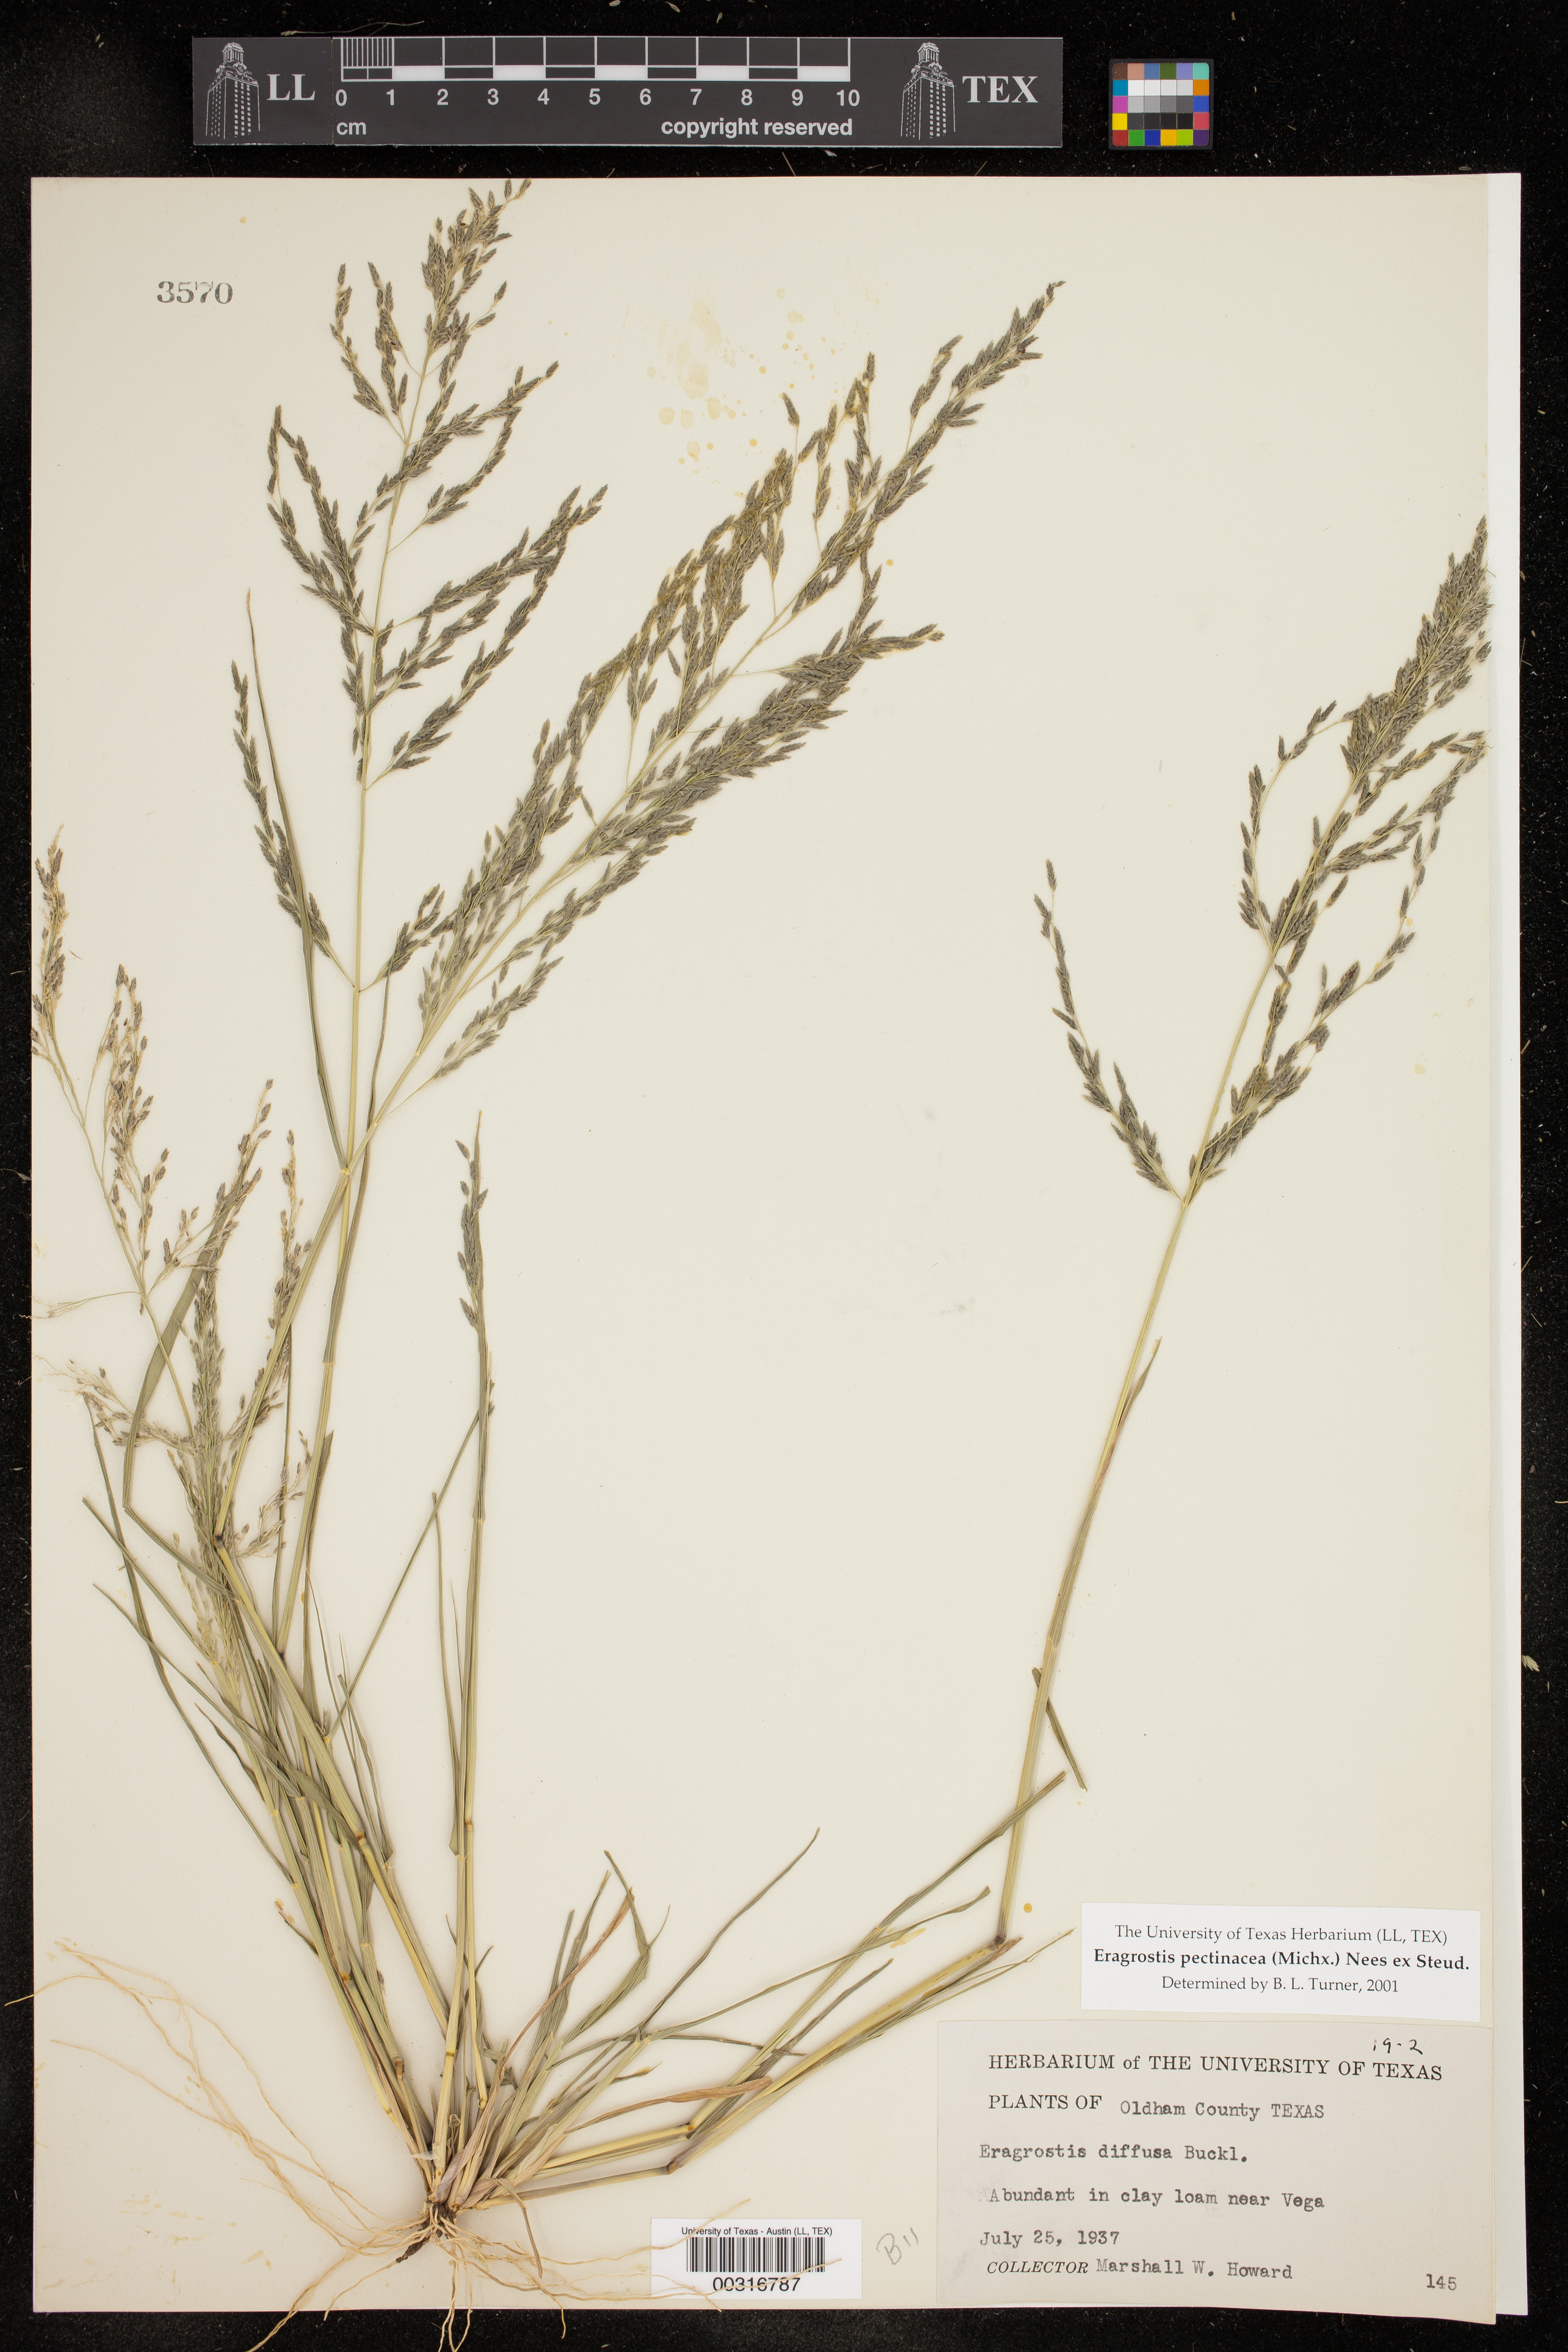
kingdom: Plantae
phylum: Tracheophyta
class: Liliopsida
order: Poales
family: Poaceae
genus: Eragrostis
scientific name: Eragrostis pectinacea
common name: Tufted lovegrass
